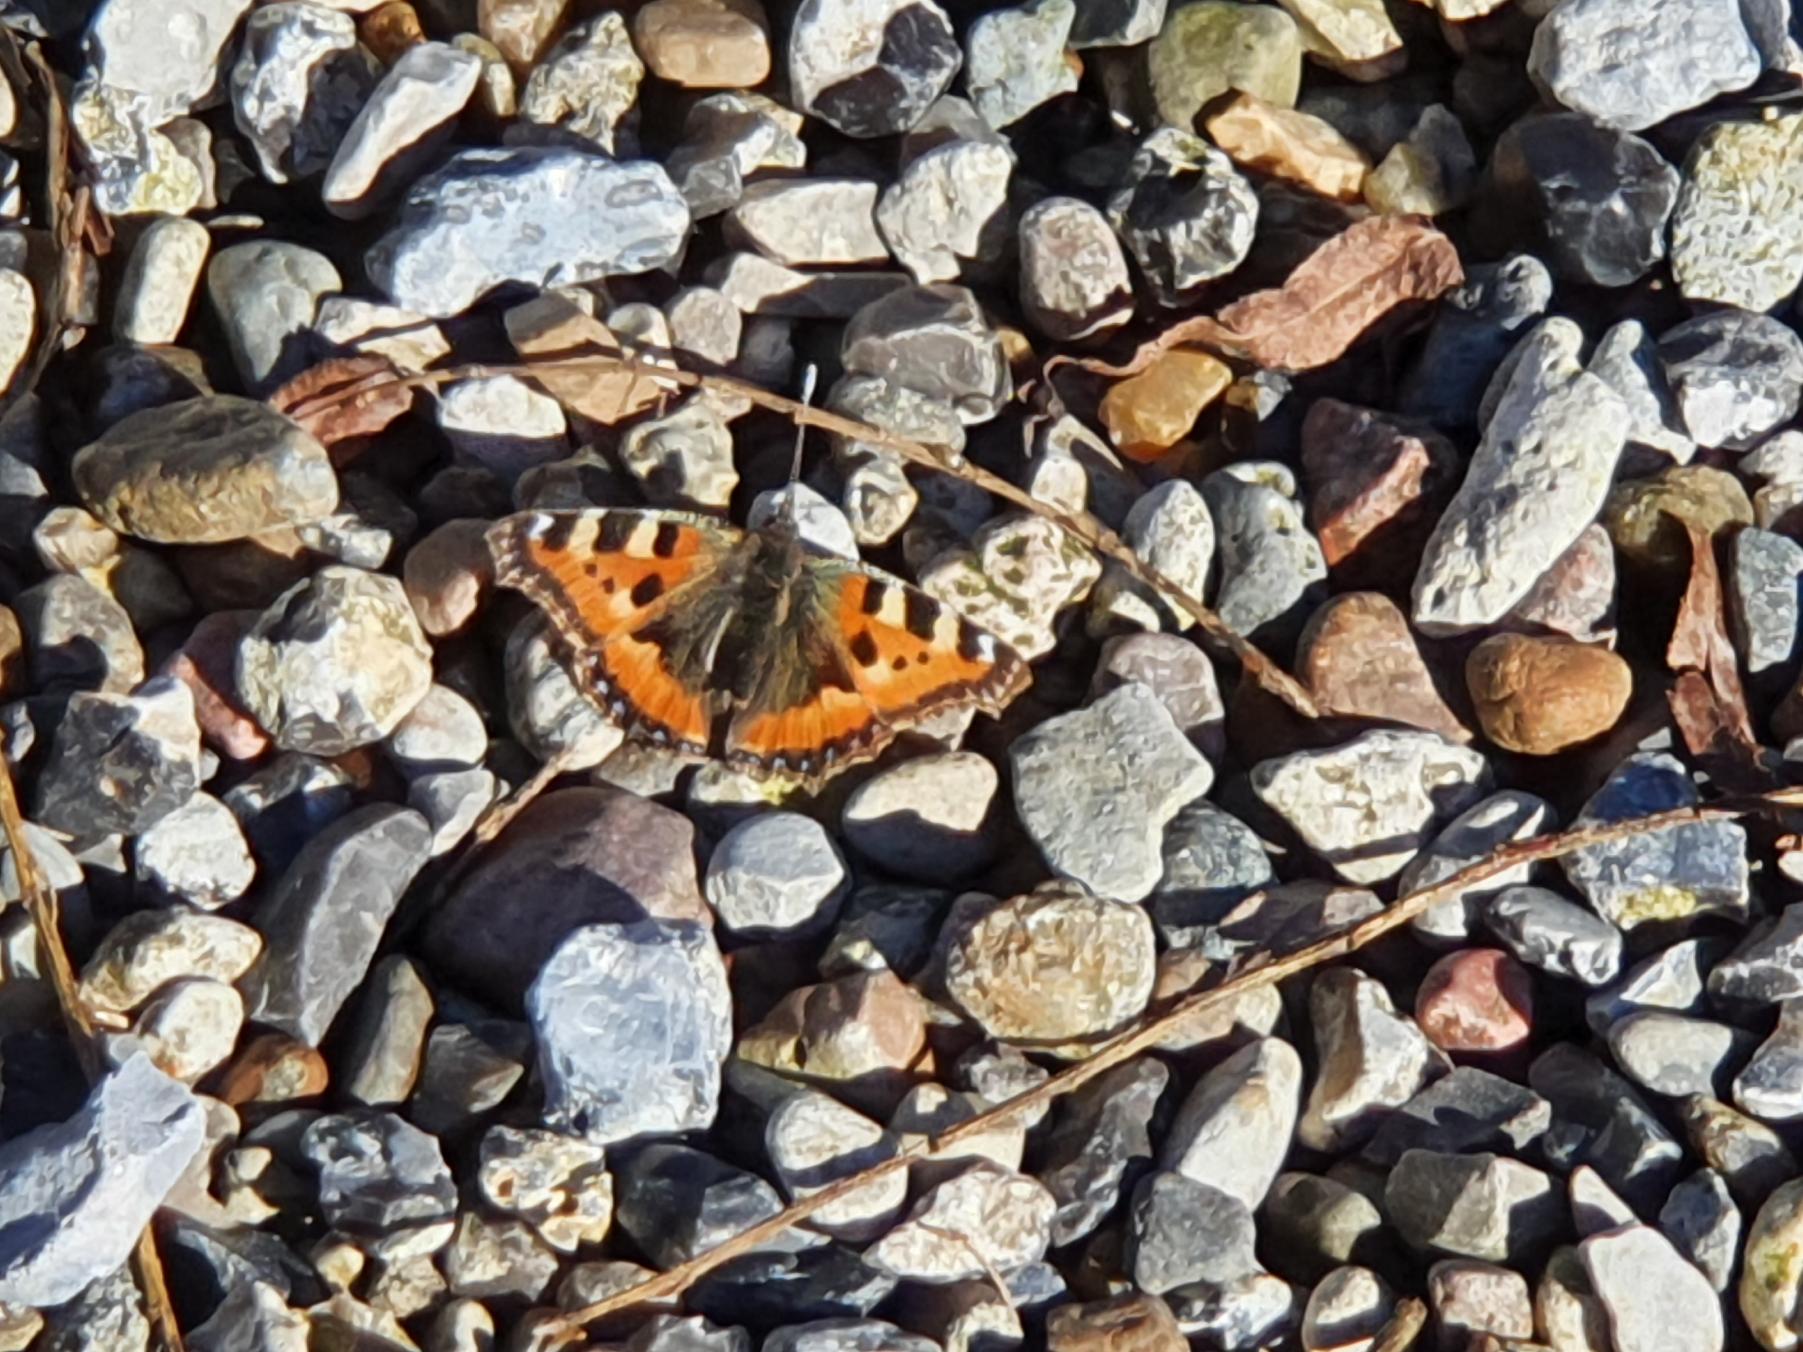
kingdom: Animalia
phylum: Arthropoda
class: Insecta
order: Lepidoptera
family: Nymphalidae
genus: Aglais
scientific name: Aglais urticae
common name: Nældens takvinge
